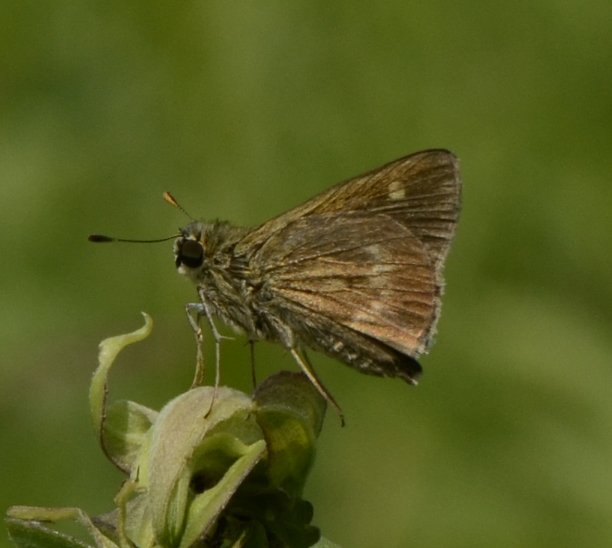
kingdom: Animalia
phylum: Arthropoda
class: Insecta
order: Lepidoptera
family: Hesperiidae
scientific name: Hesperiidae
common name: Skippers
